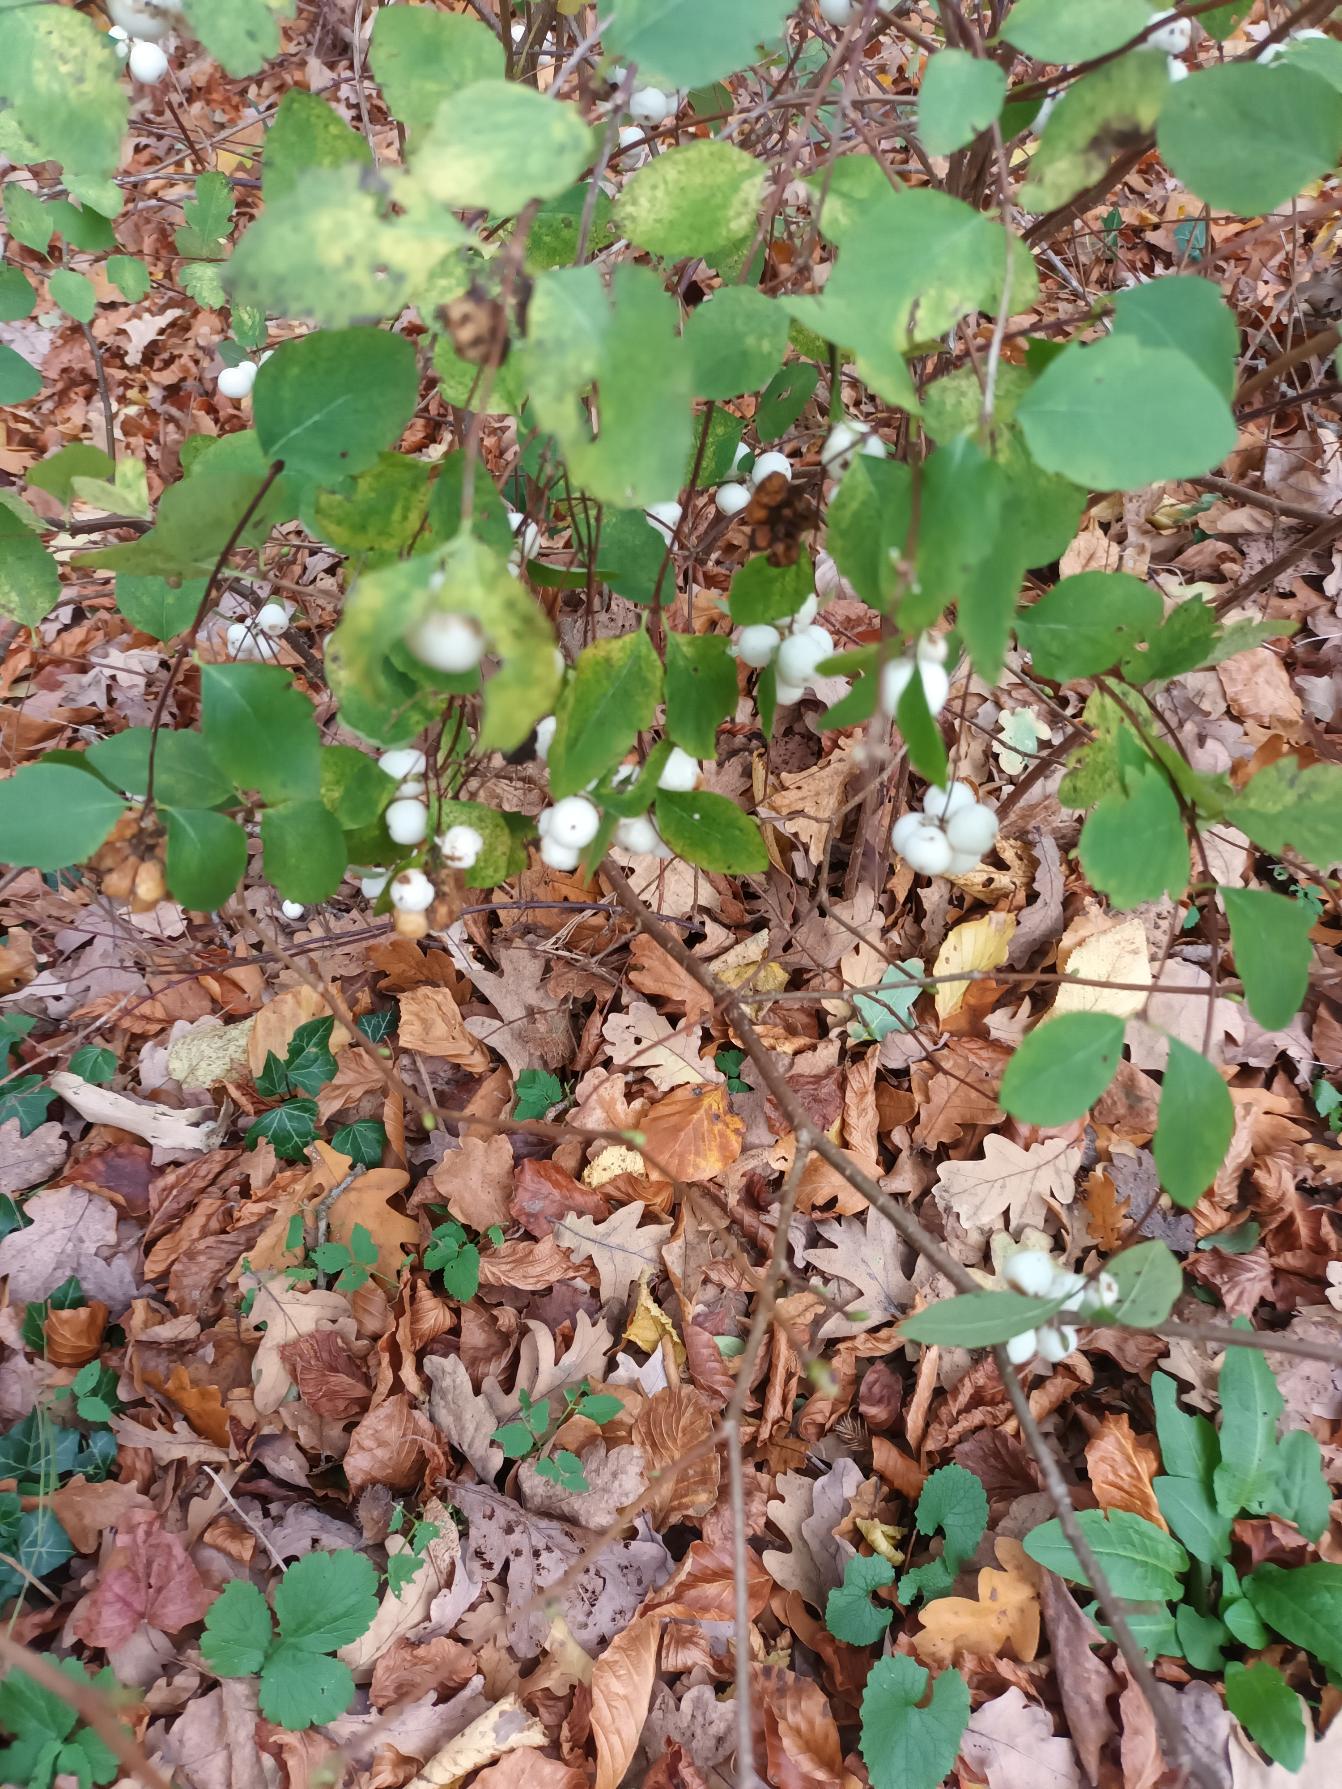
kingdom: Plantae
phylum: Tracheophyta
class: Magnoliopsida
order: Dipsacales
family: Caprifoliaceae
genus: Symphoricarpos
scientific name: Symphoricarpos albus
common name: Almindelig snebær
